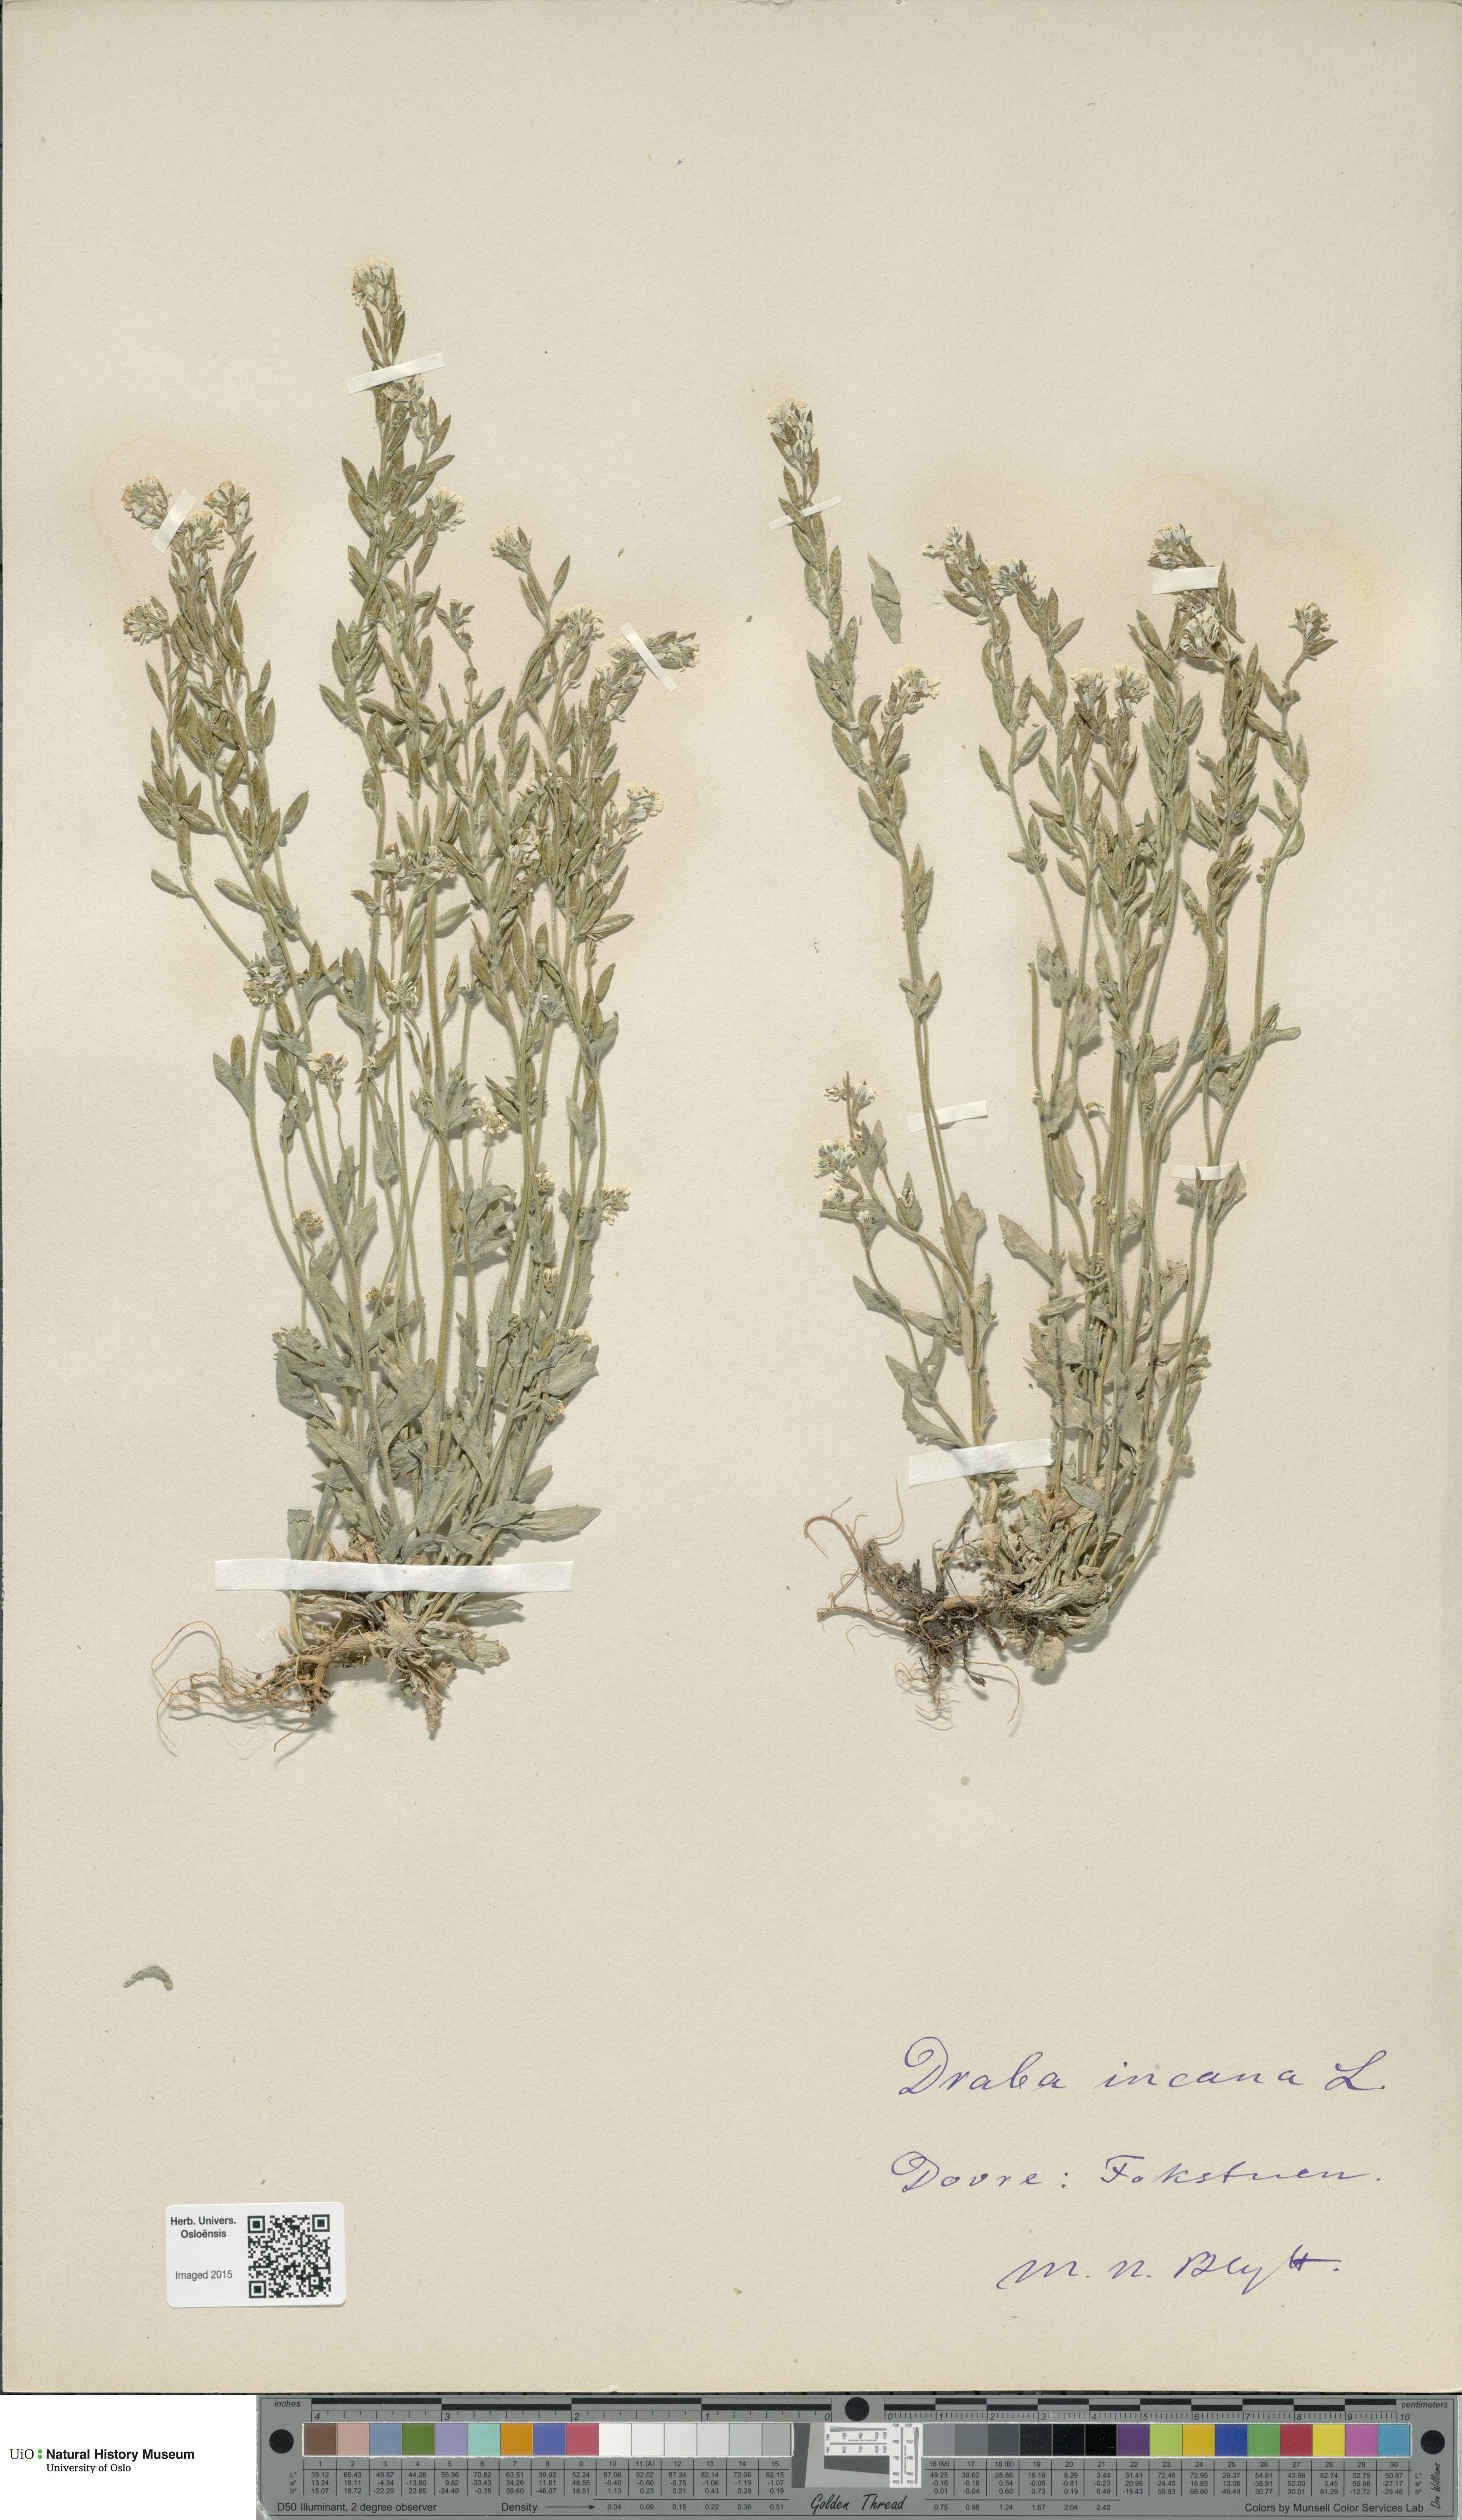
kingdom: Plantae
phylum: Tracheophyta
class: Magnoliopsida
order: Brassicales
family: Brassicaceae
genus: Draba
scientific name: Draba incana
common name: Hoary whitlow-grass
